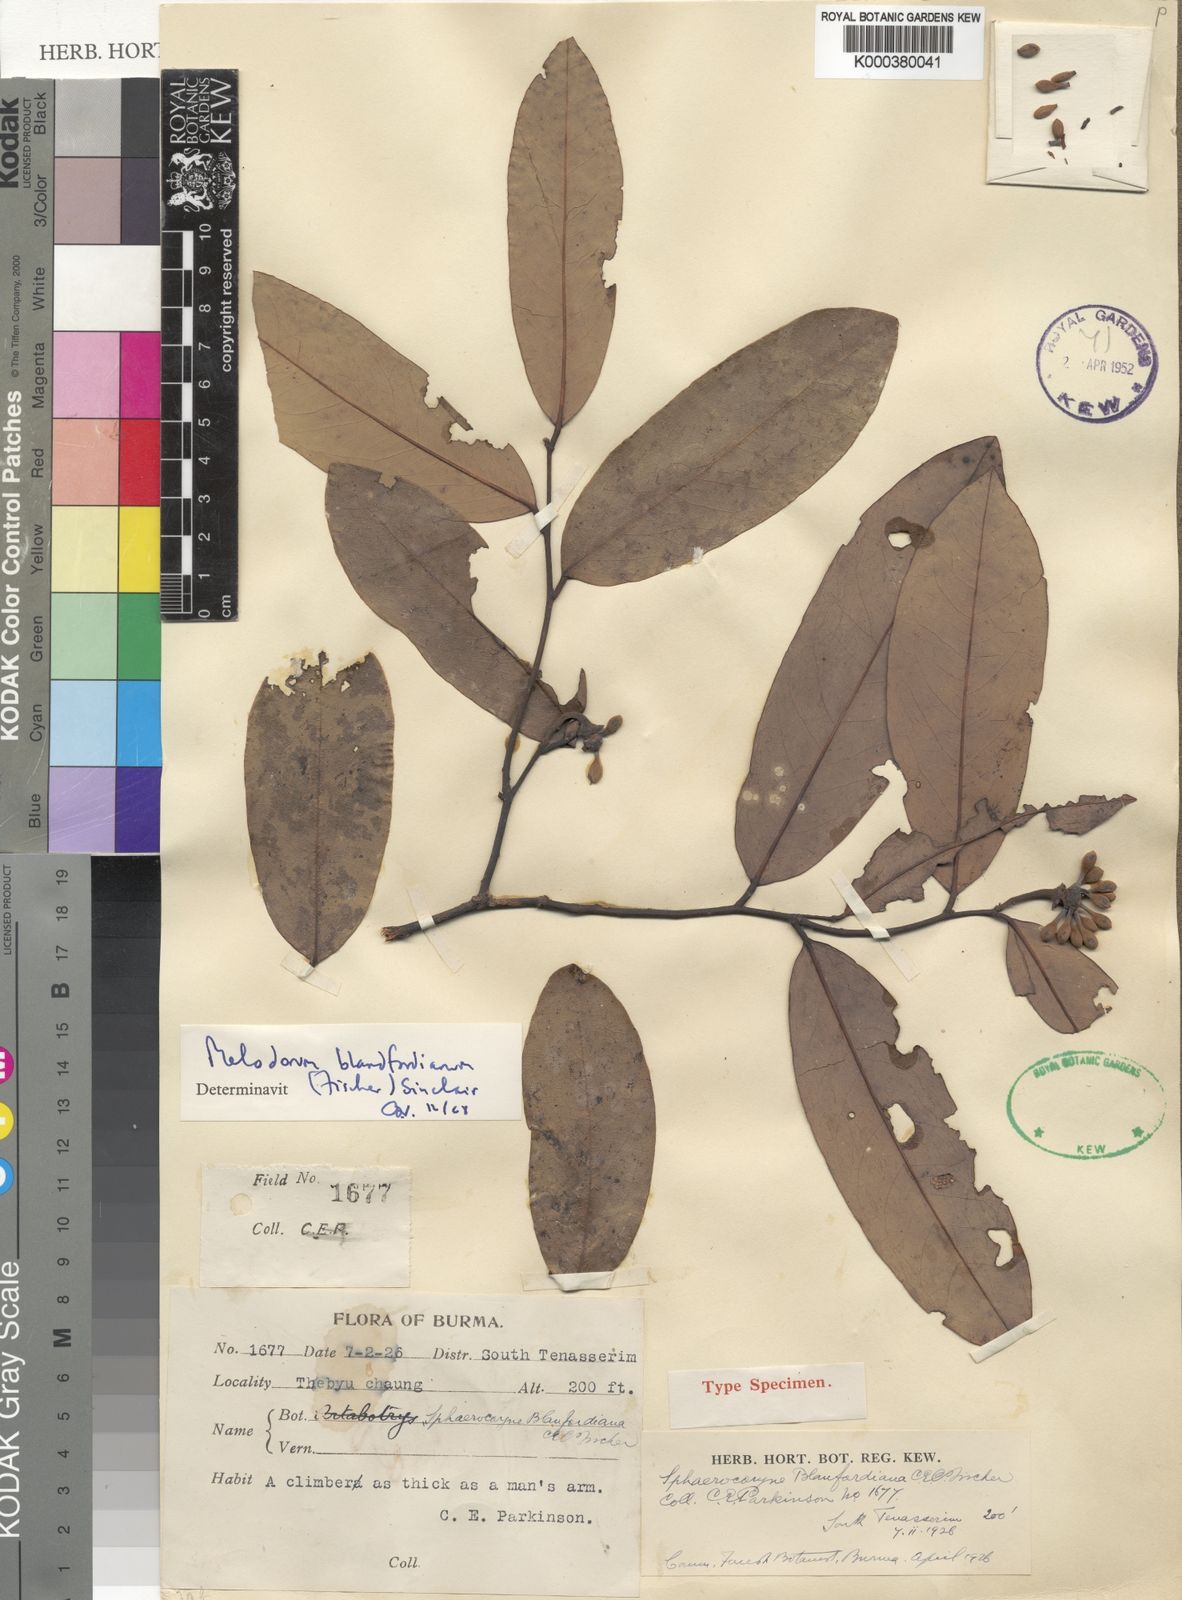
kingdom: Plantae
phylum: Tracheophyta
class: Magnoliopsida
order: Magnoliales
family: Annonaceae
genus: Sphaerocoryne
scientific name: Sphaerocoryne blanfordiana
